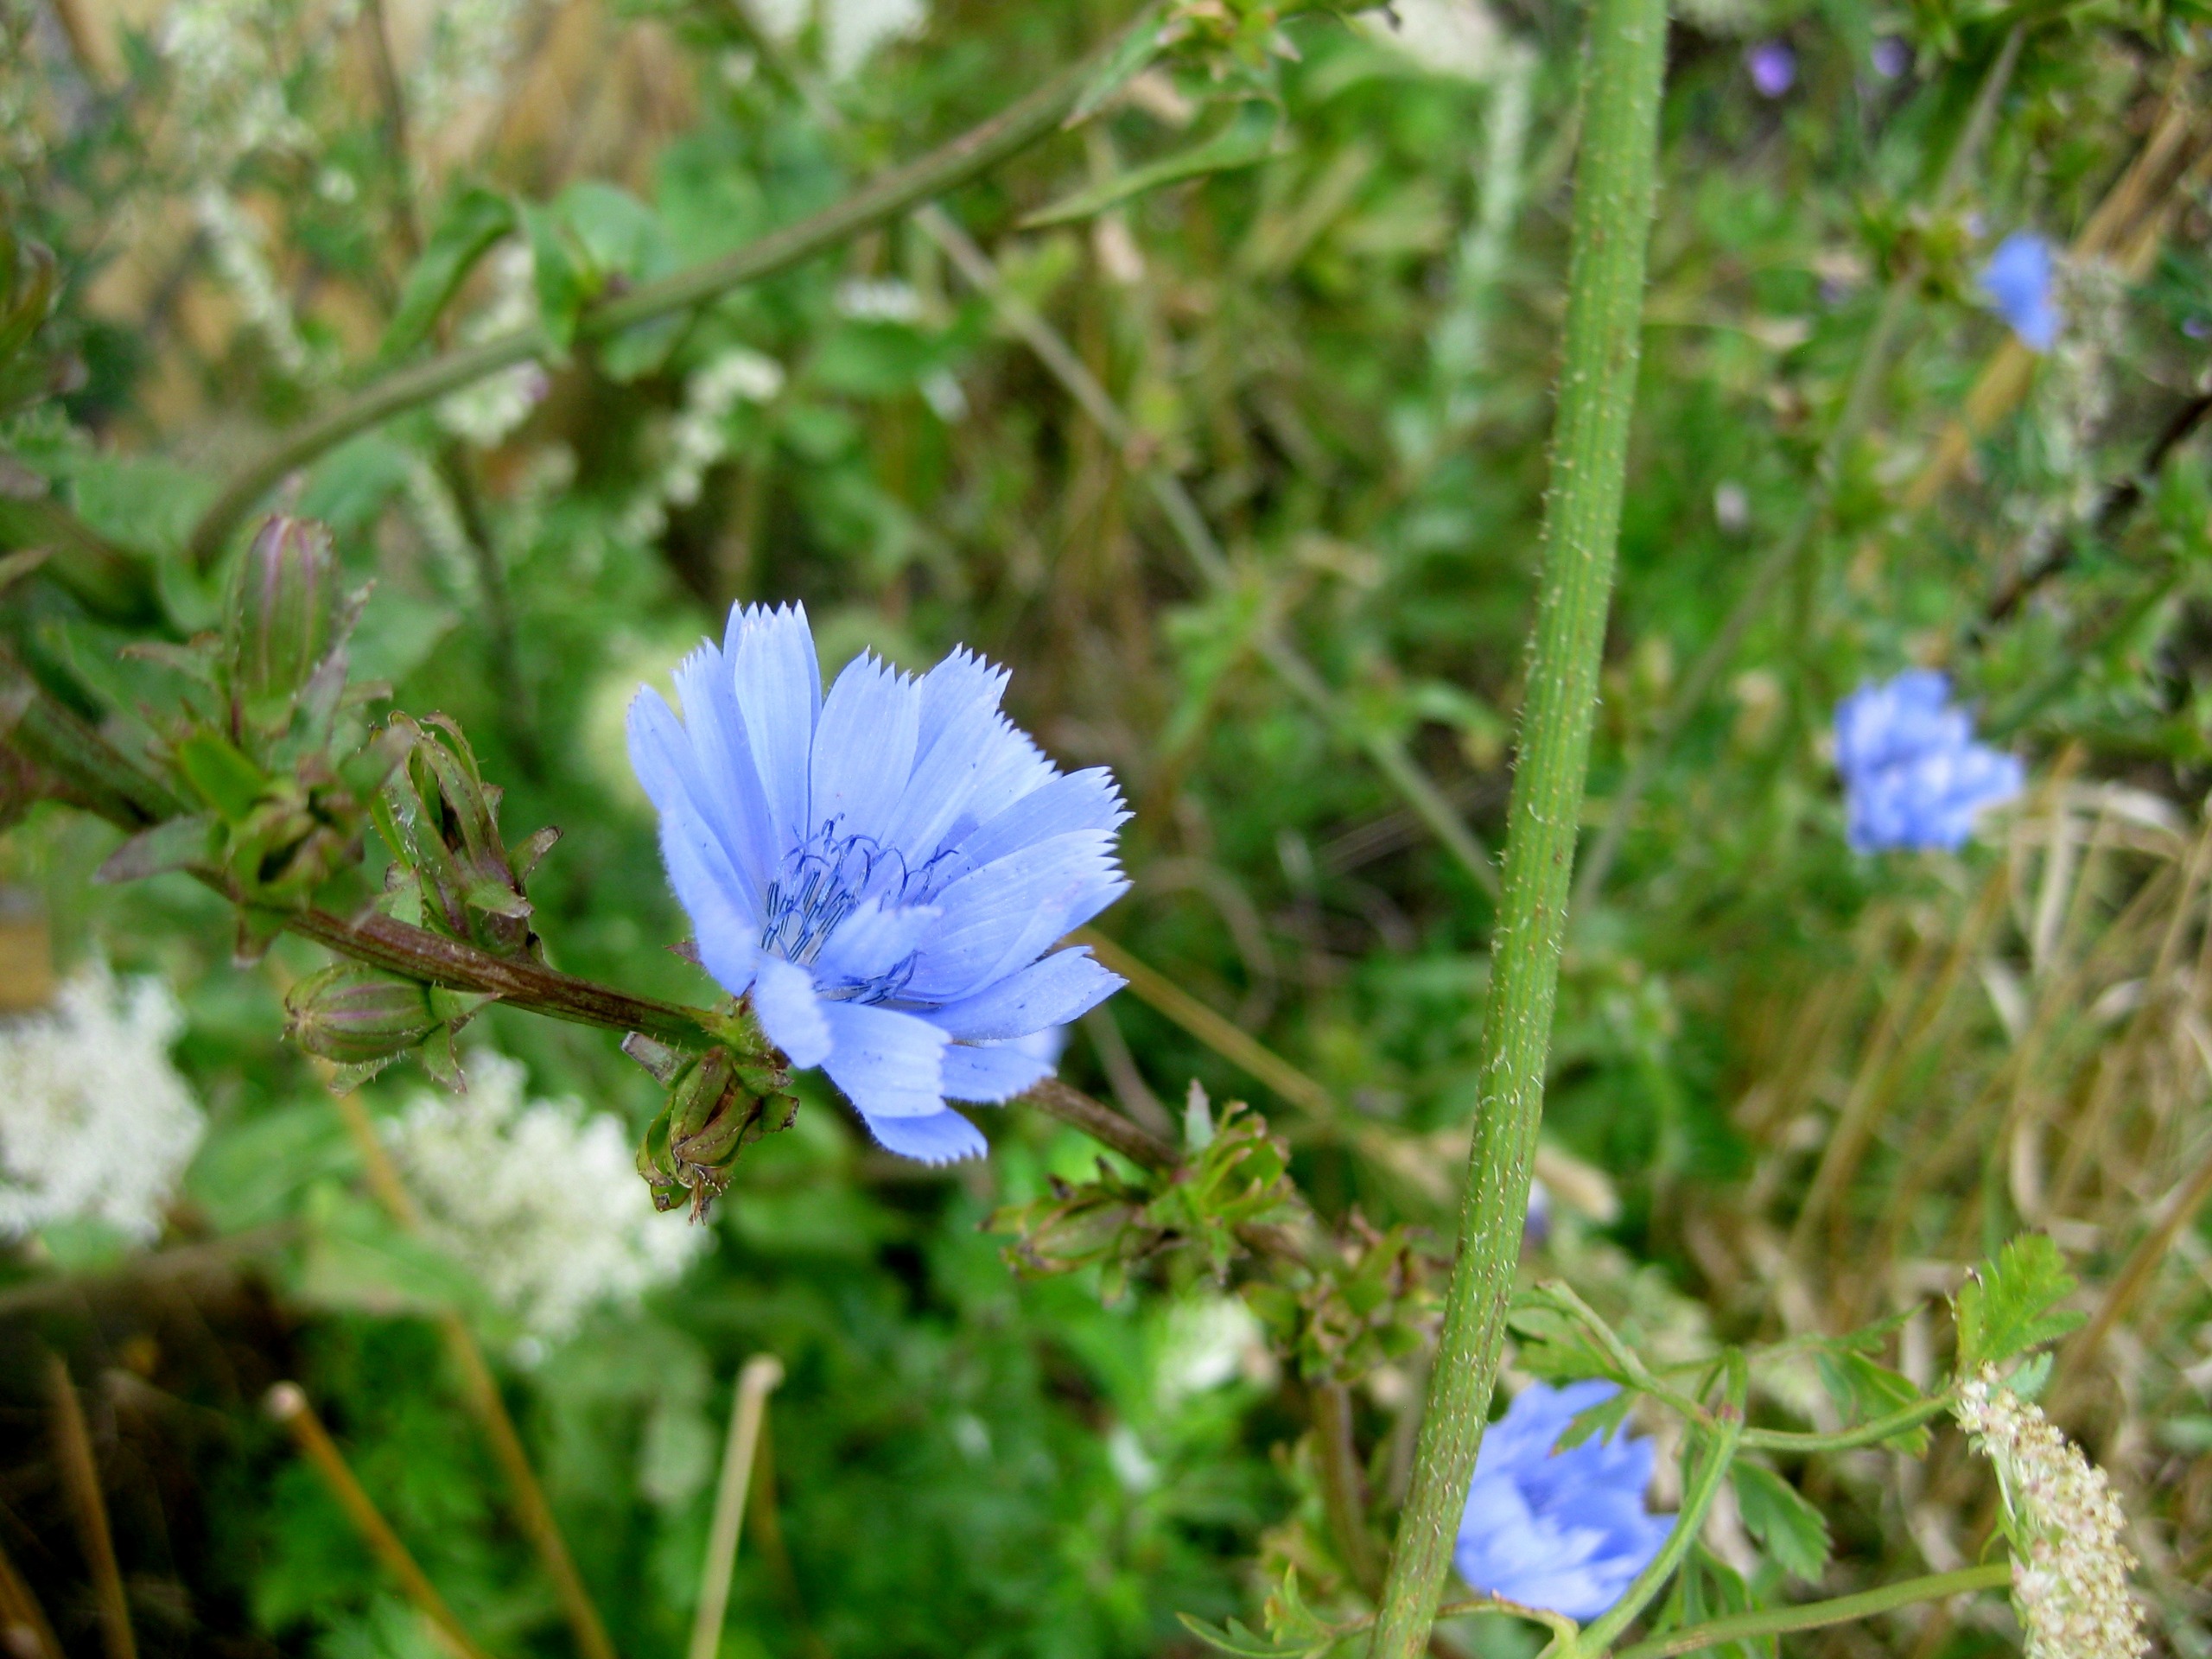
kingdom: Plantae
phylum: Tracheophyta
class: Magnoliopsida
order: Asterales
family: Asteraceae
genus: Cichorium
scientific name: Cichorium intybus
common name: Cikorie
